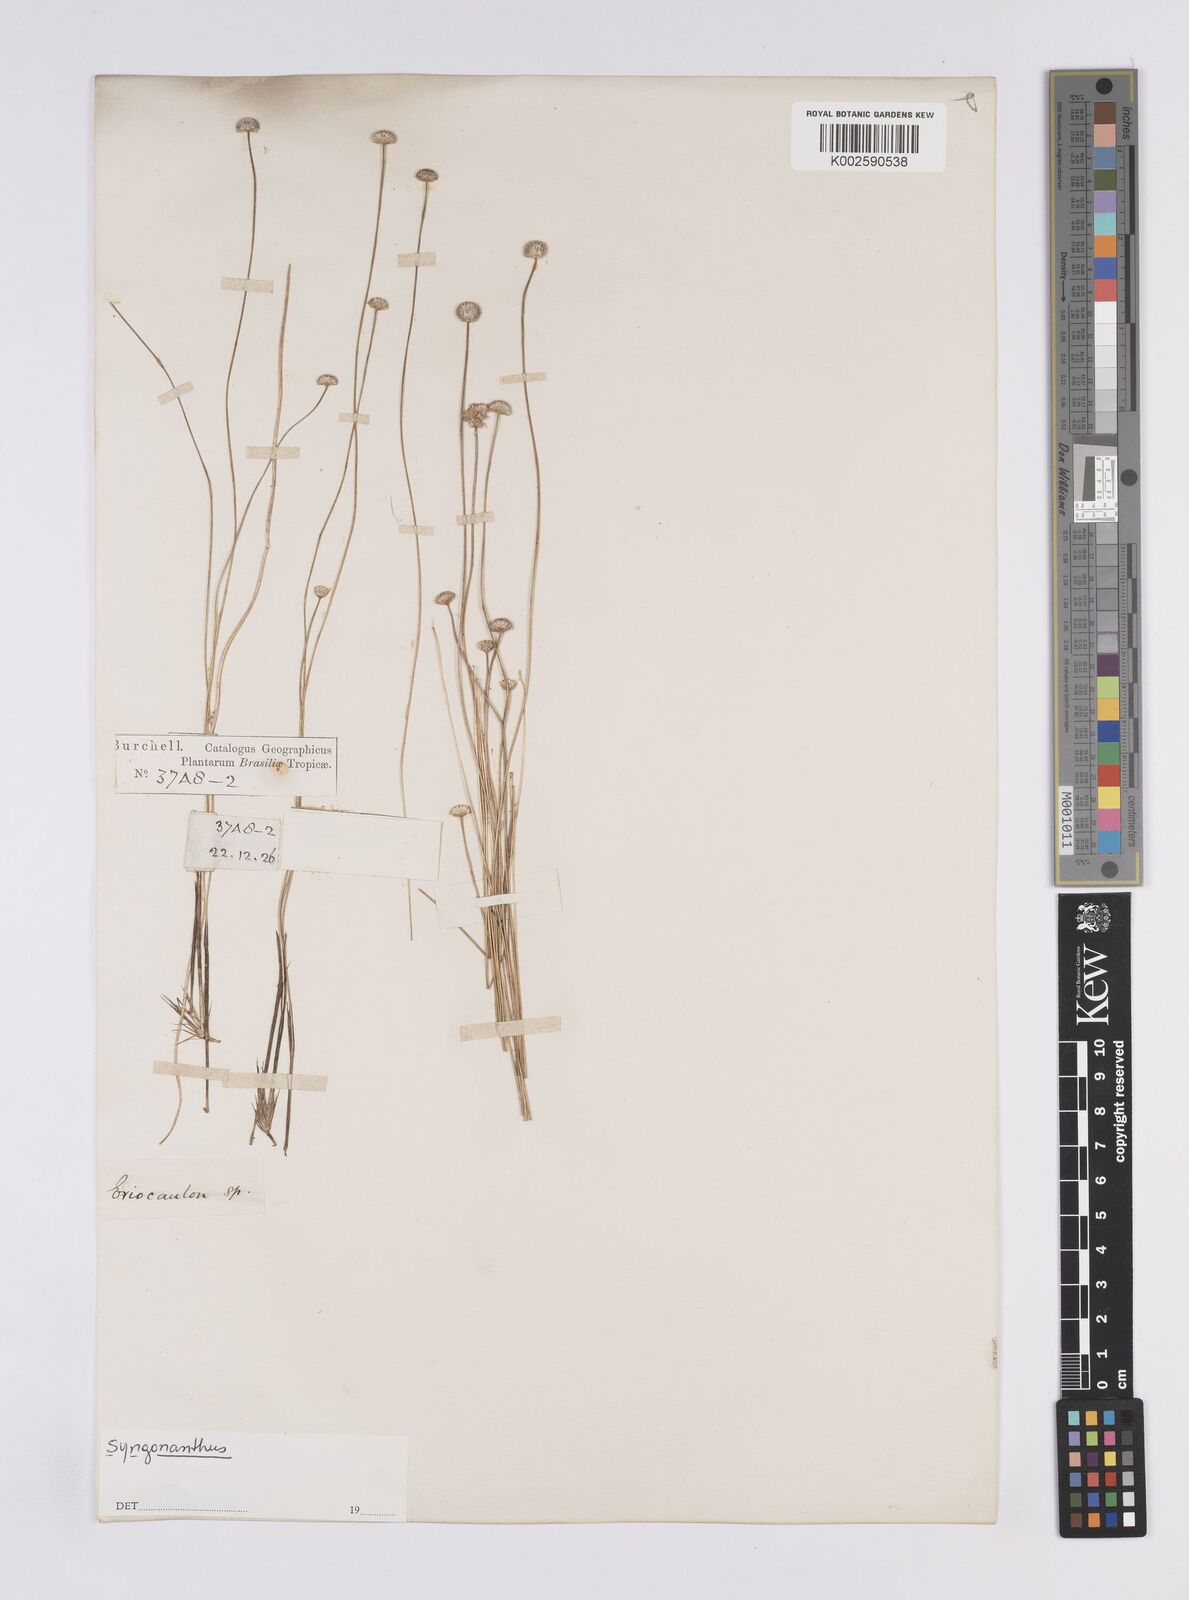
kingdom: Plantae
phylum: Tracheophyta
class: Liliopsida
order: Poales
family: Eriocaulaceae
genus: Syngonanthus
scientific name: Syngonanthus
